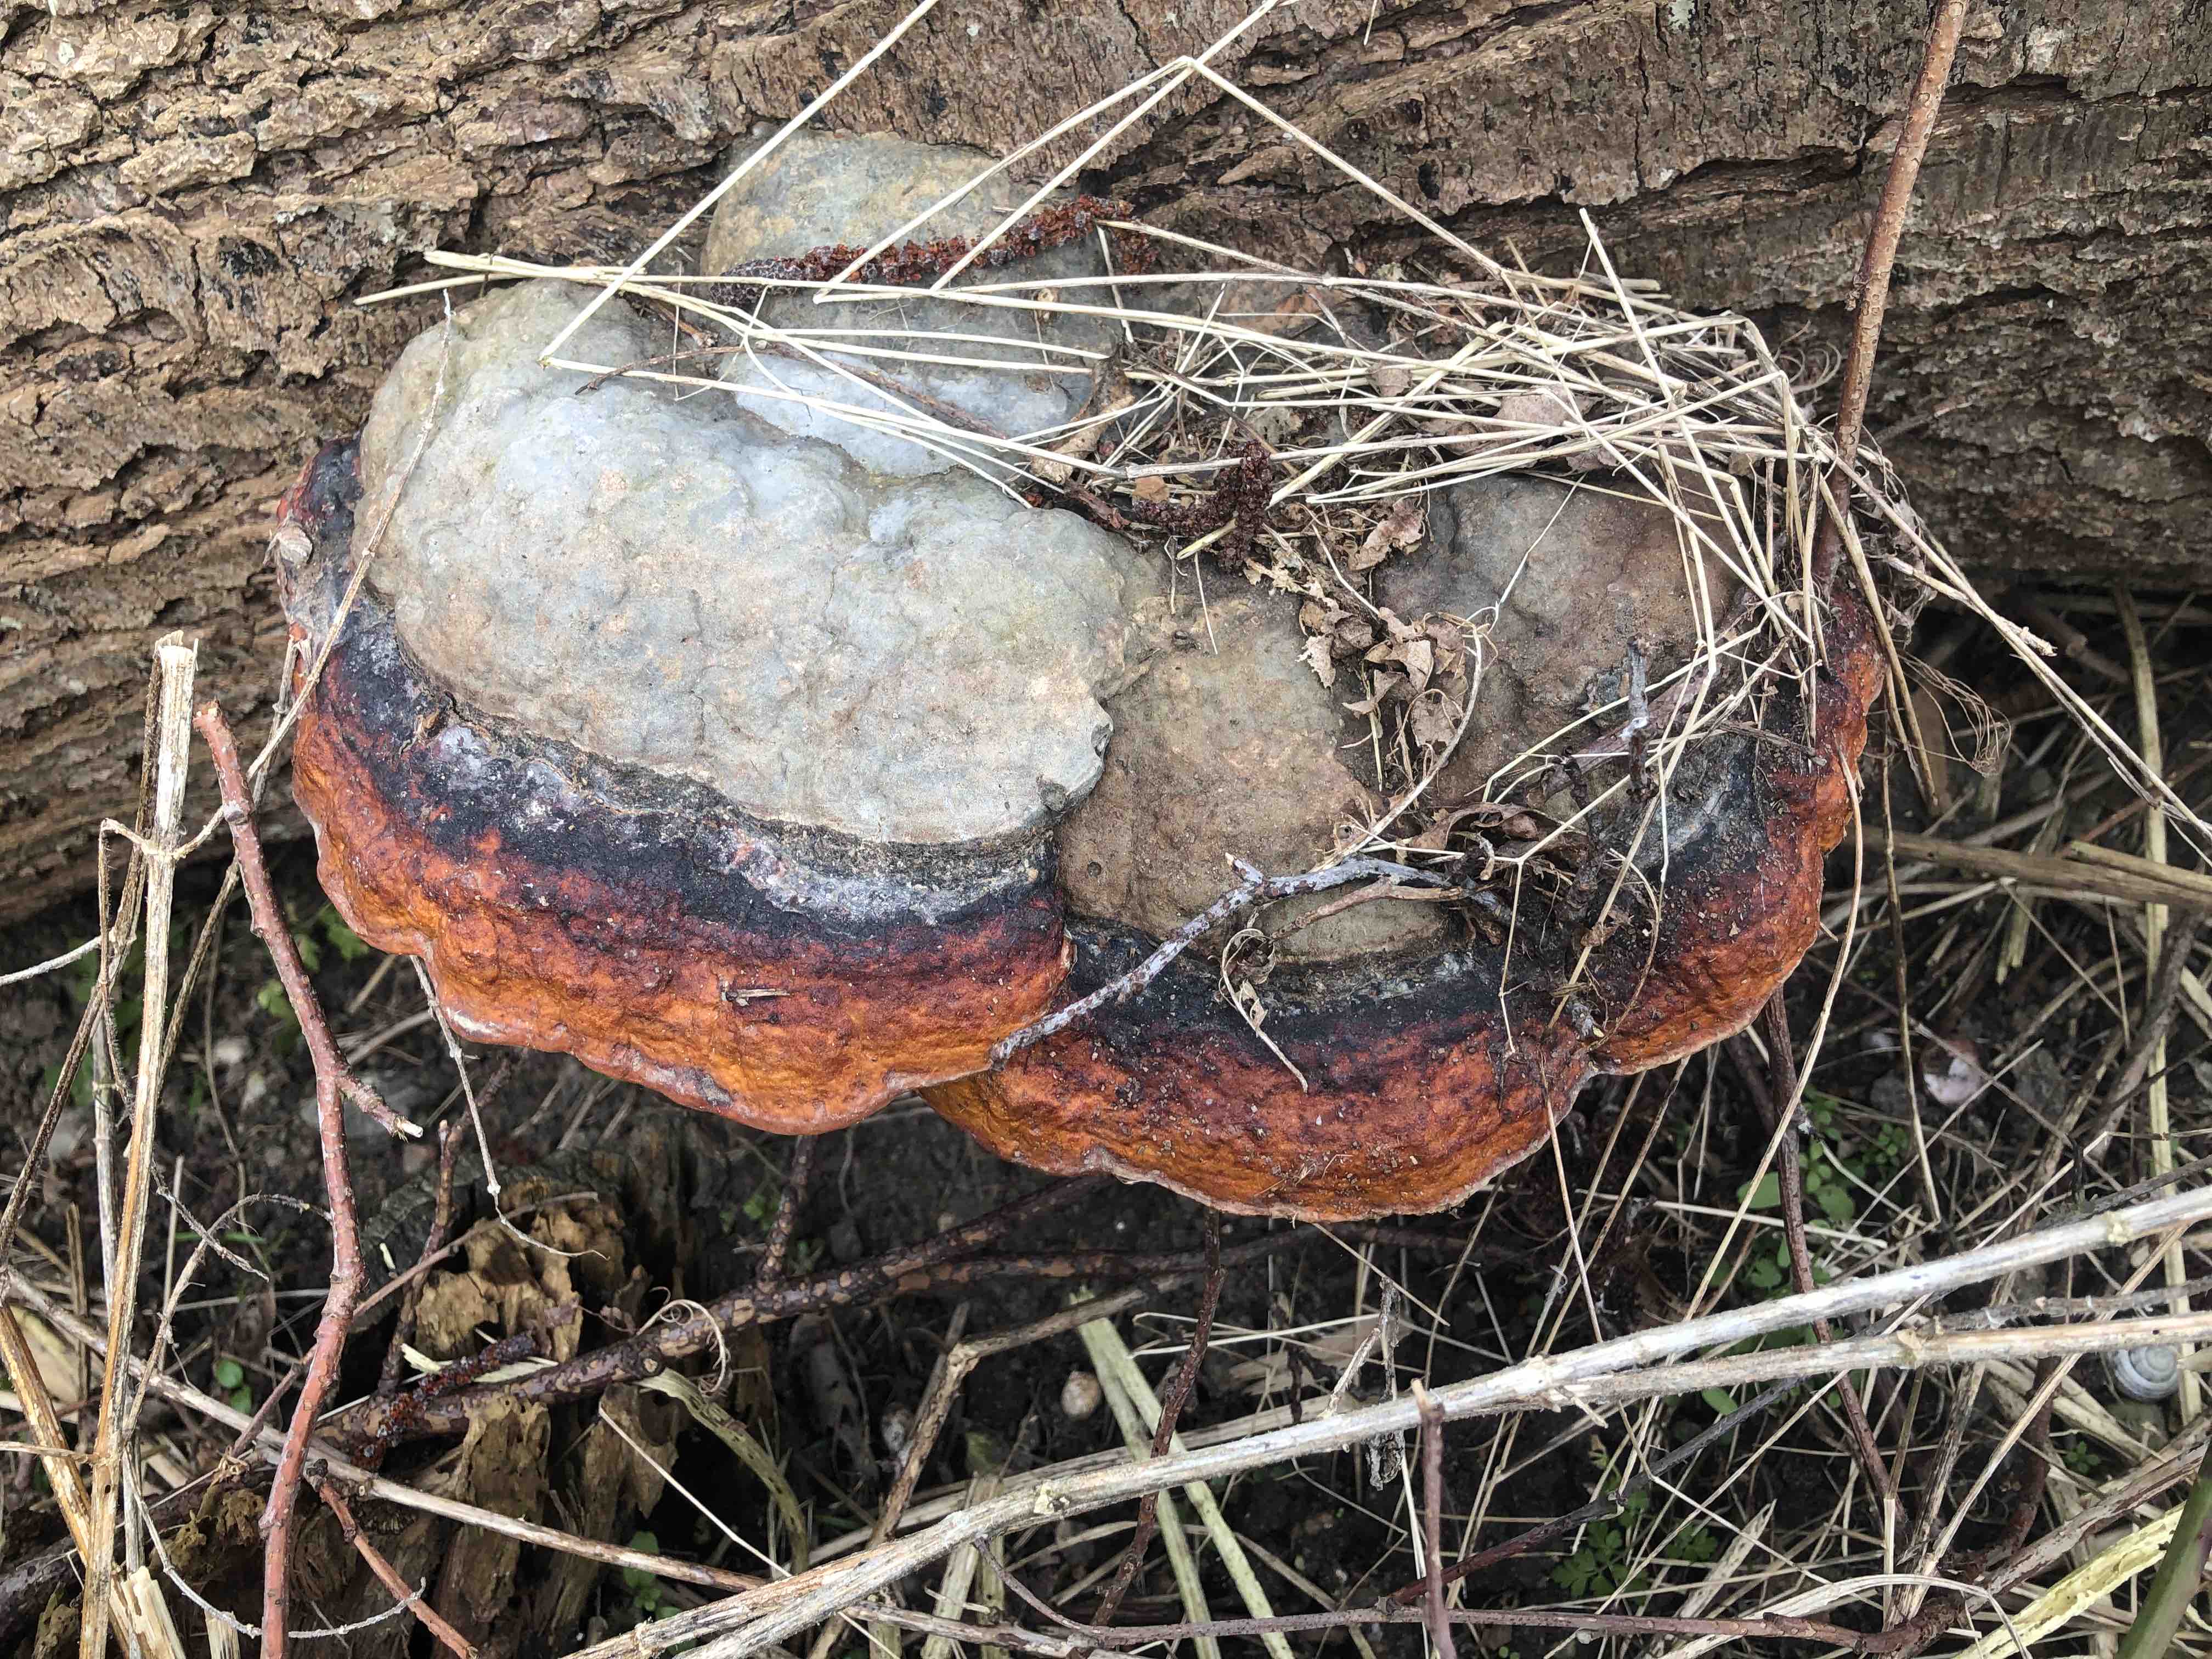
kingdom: Fungi
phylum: Basidiomycota
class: Agaricomycetes
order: Polyporales
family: Fomitopsidaceae
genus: Fomitopsis
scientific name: Fomitopsis pinicola
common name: randbæltet hovporesvamp
